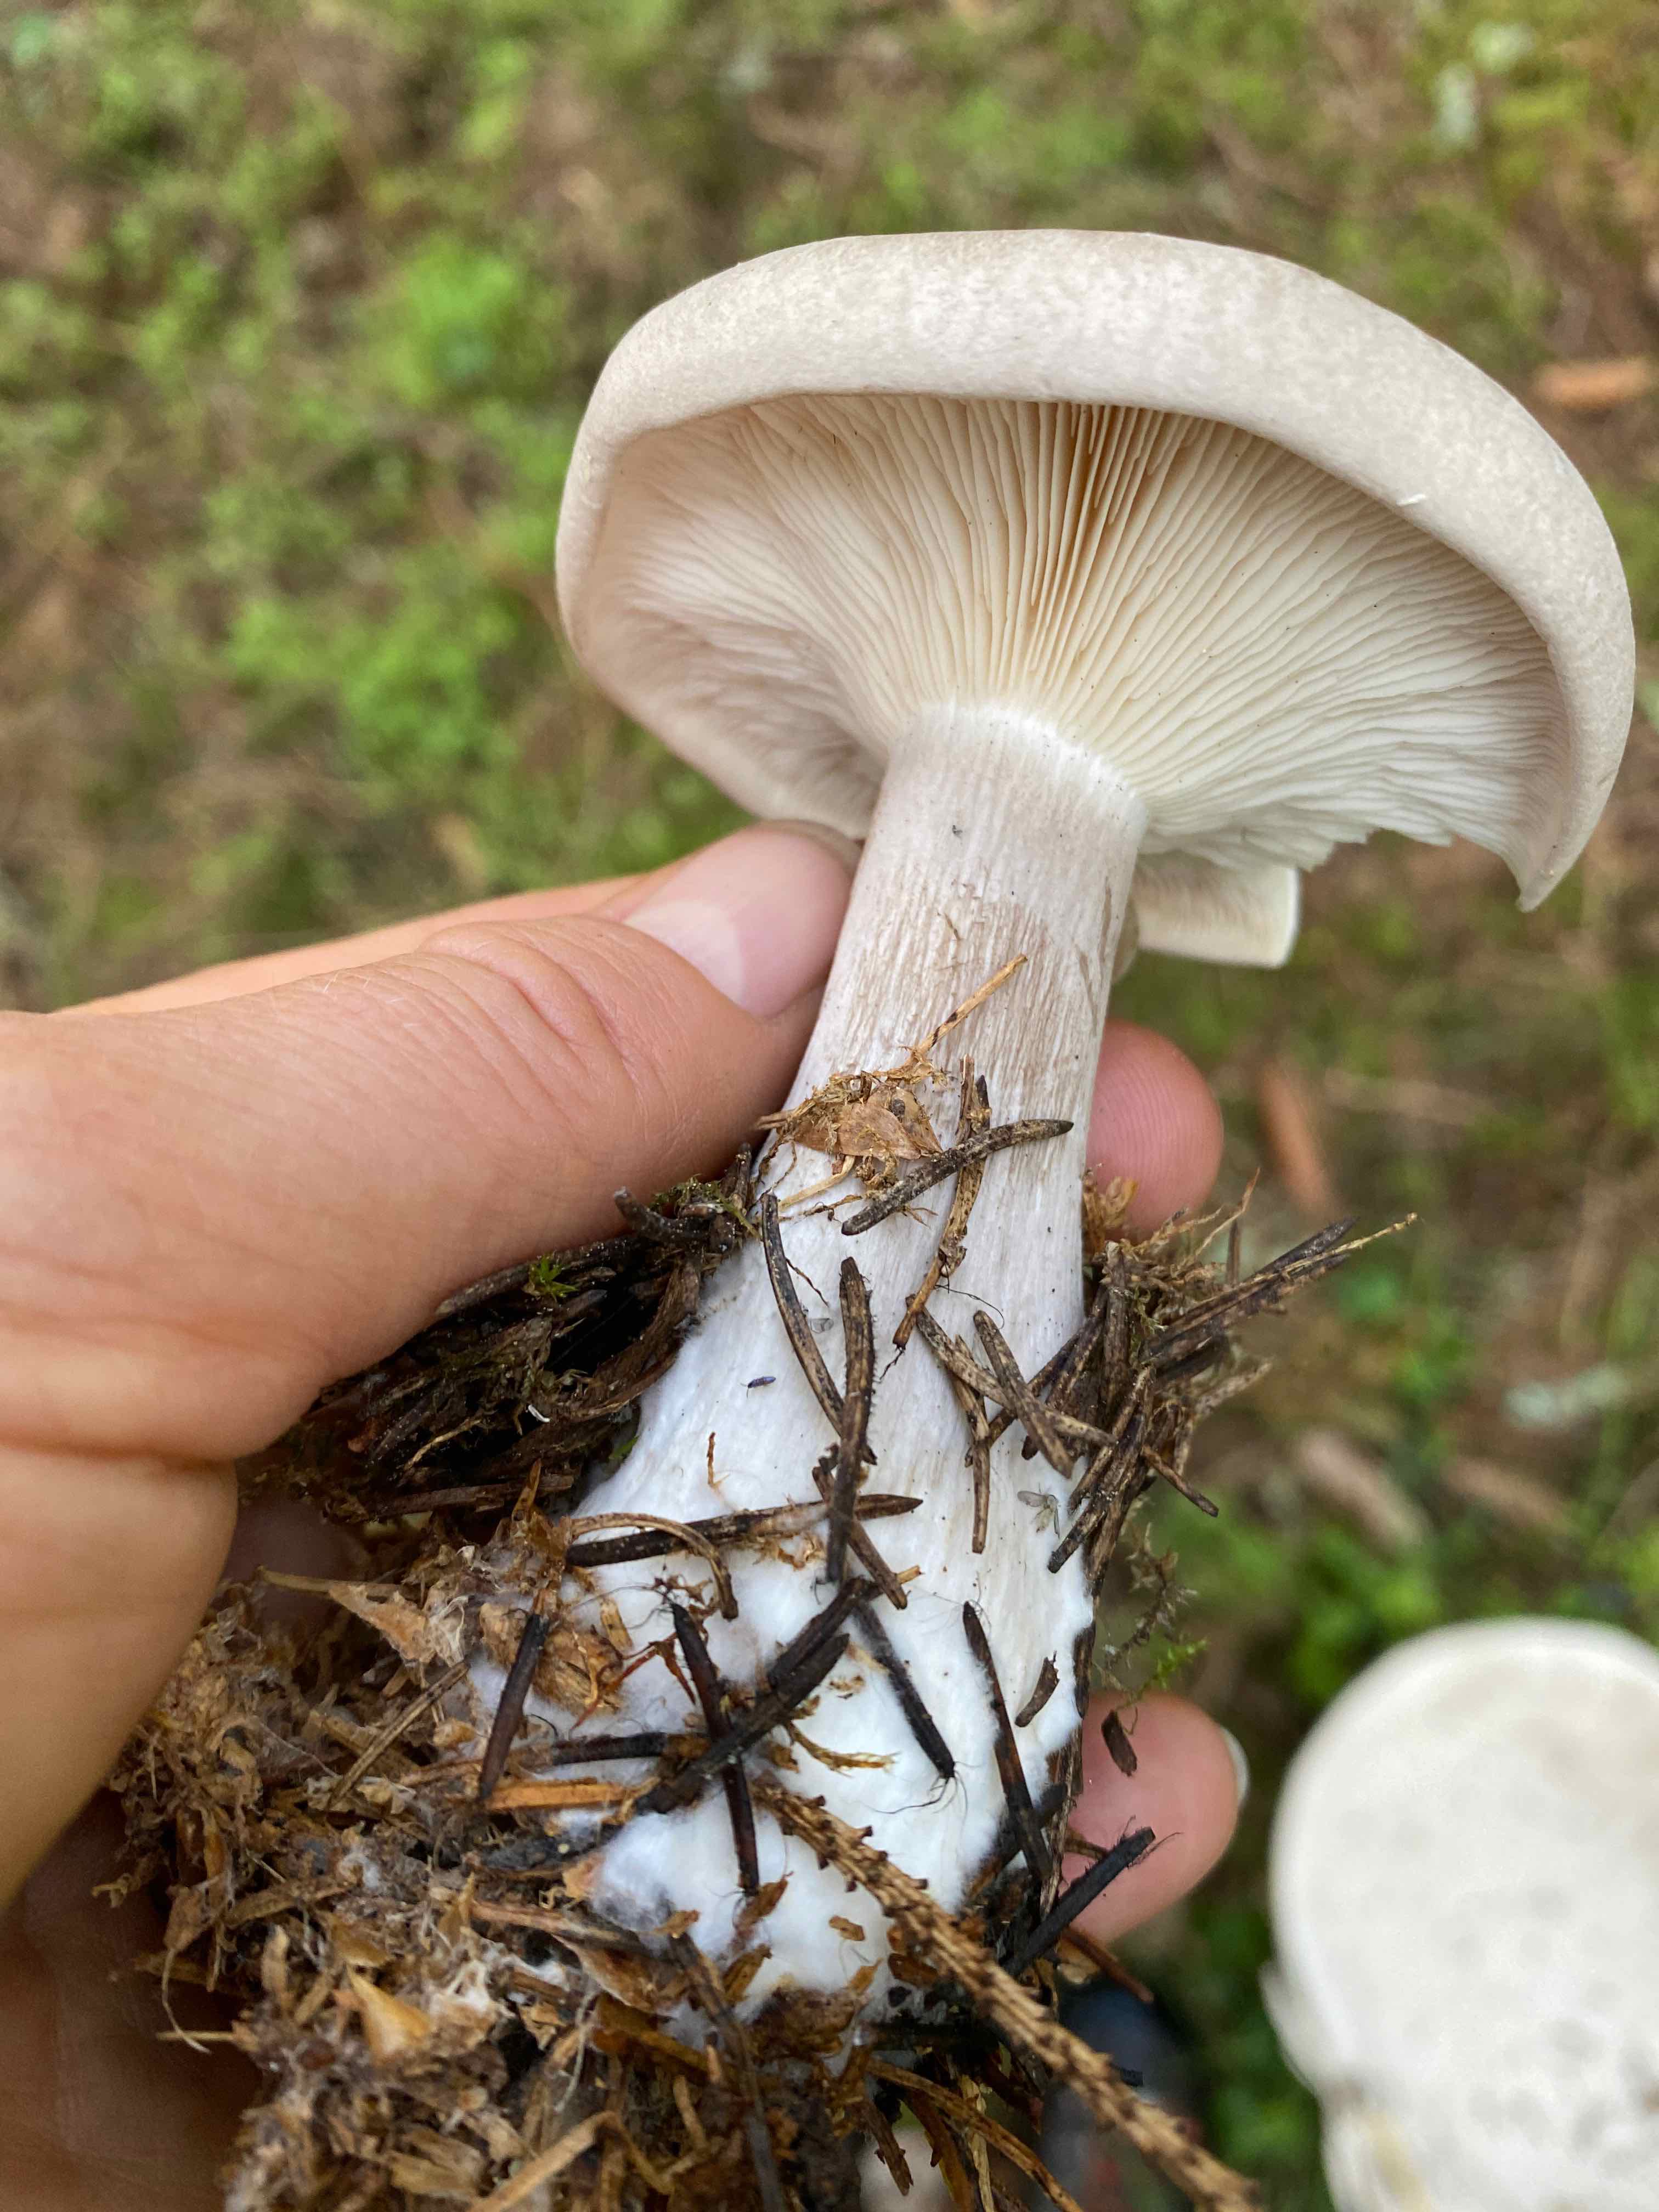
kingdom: Fungi
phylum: Basidiomycota
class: Agaricomycetes
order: Agaricales
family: Tricholomataceae
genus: Clitocybe
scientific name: Clitocybe nebularis
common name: tåge-tragthat
